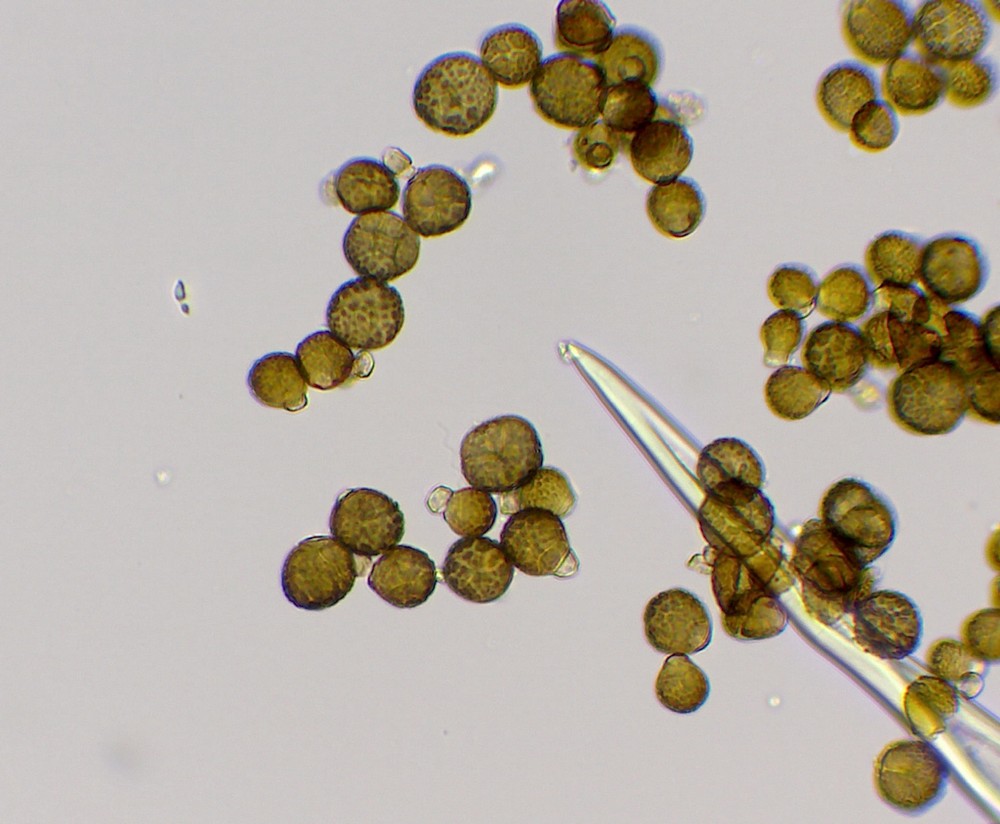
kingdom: Fungi
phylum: Ascomycota
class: Dothideomycetes
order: Pleosporales
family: Didymellaceae
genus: Epicoccum
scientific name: Epicoccum nigrum
